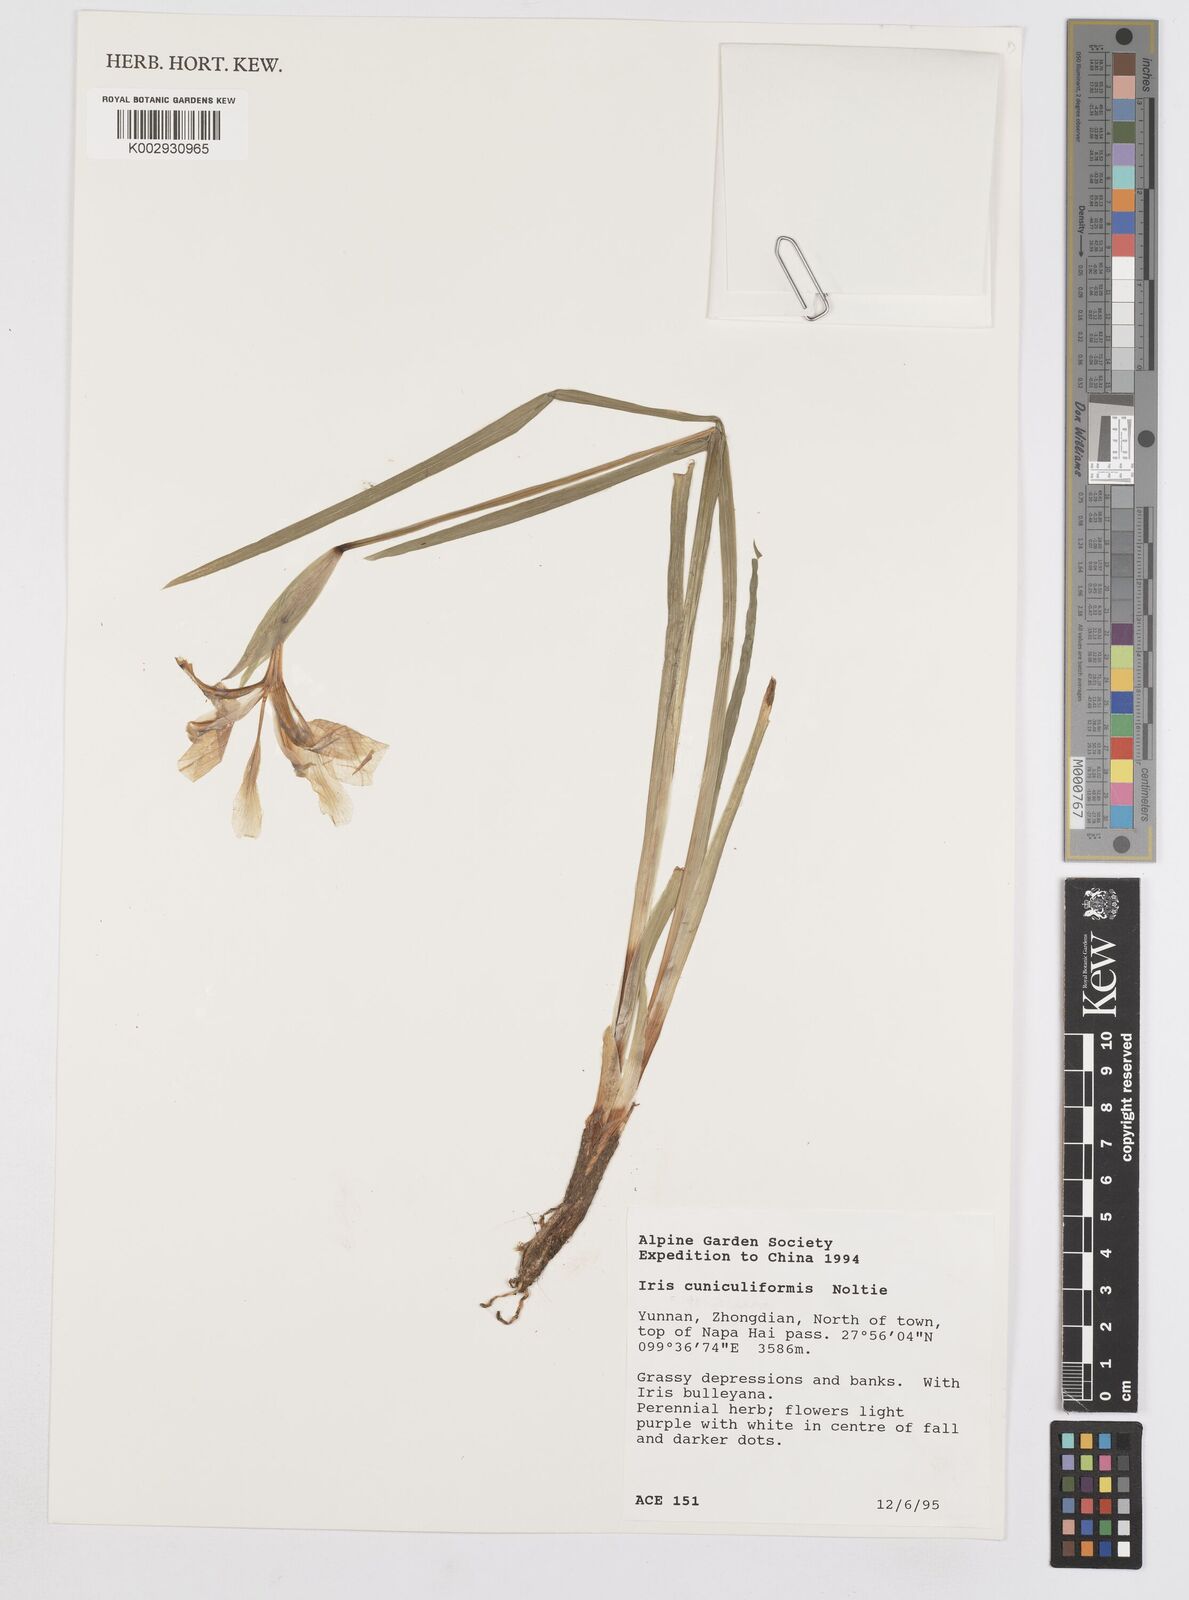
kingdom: Plantae
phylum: Tracheophyta
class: Liliopsida
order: Asparagales
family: Iridaceae
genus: Iris
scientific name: Iris cuniculiformis
